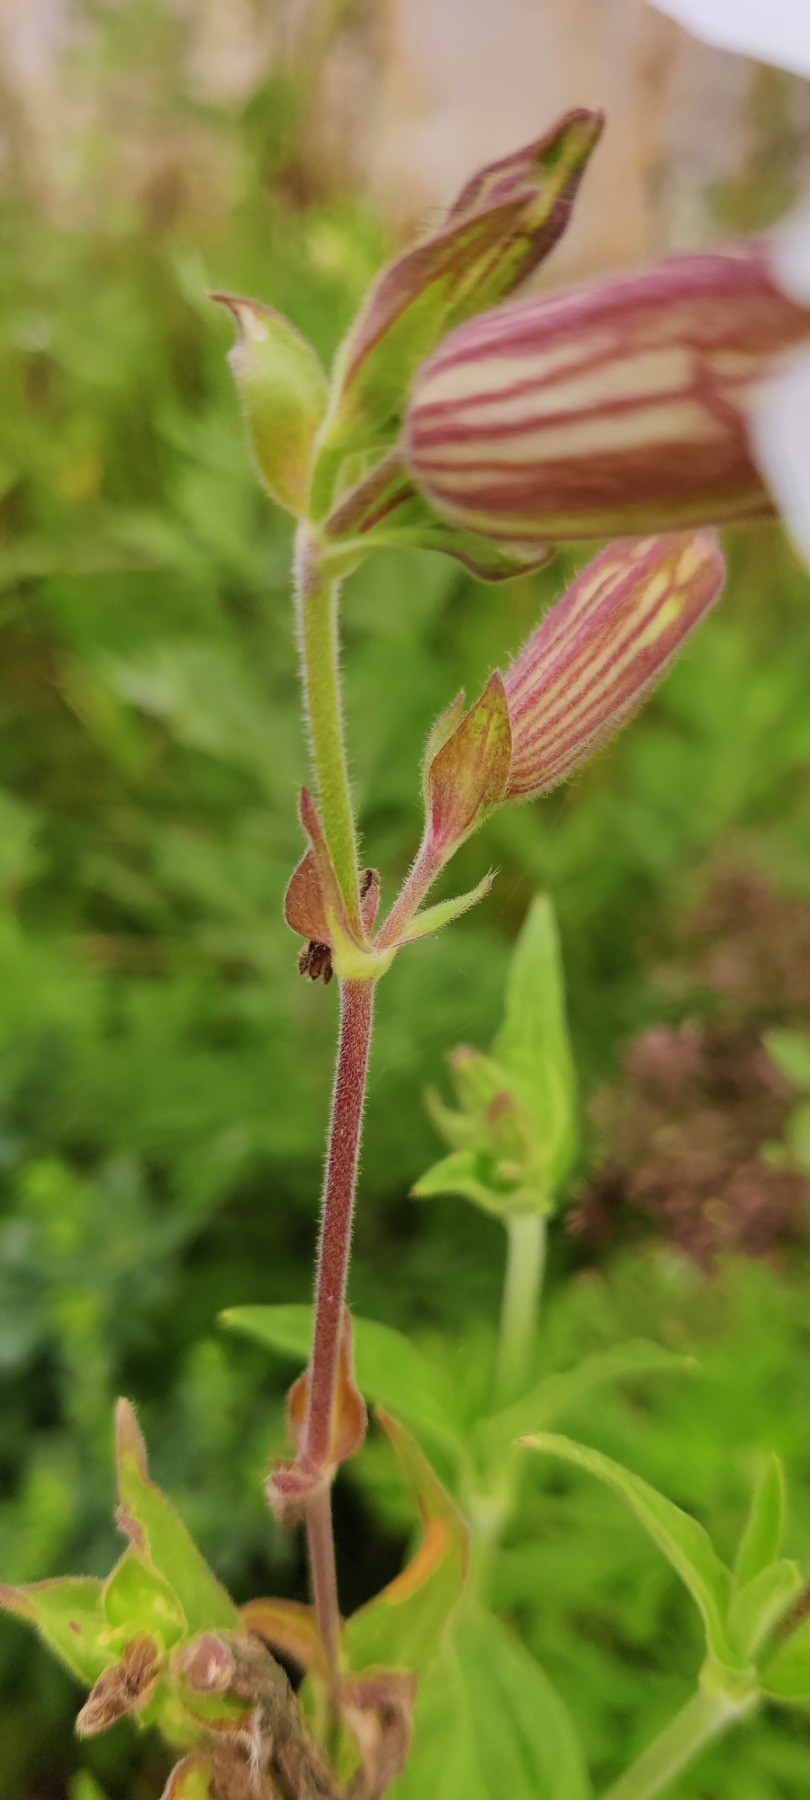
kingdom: Plantae
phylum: Tracheophyta
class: Magnoliopsida
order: Caryophyllales
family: Caryophyllaceae
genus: Silene
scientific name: Silene latifolia
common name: Aftenpragtstjerne
